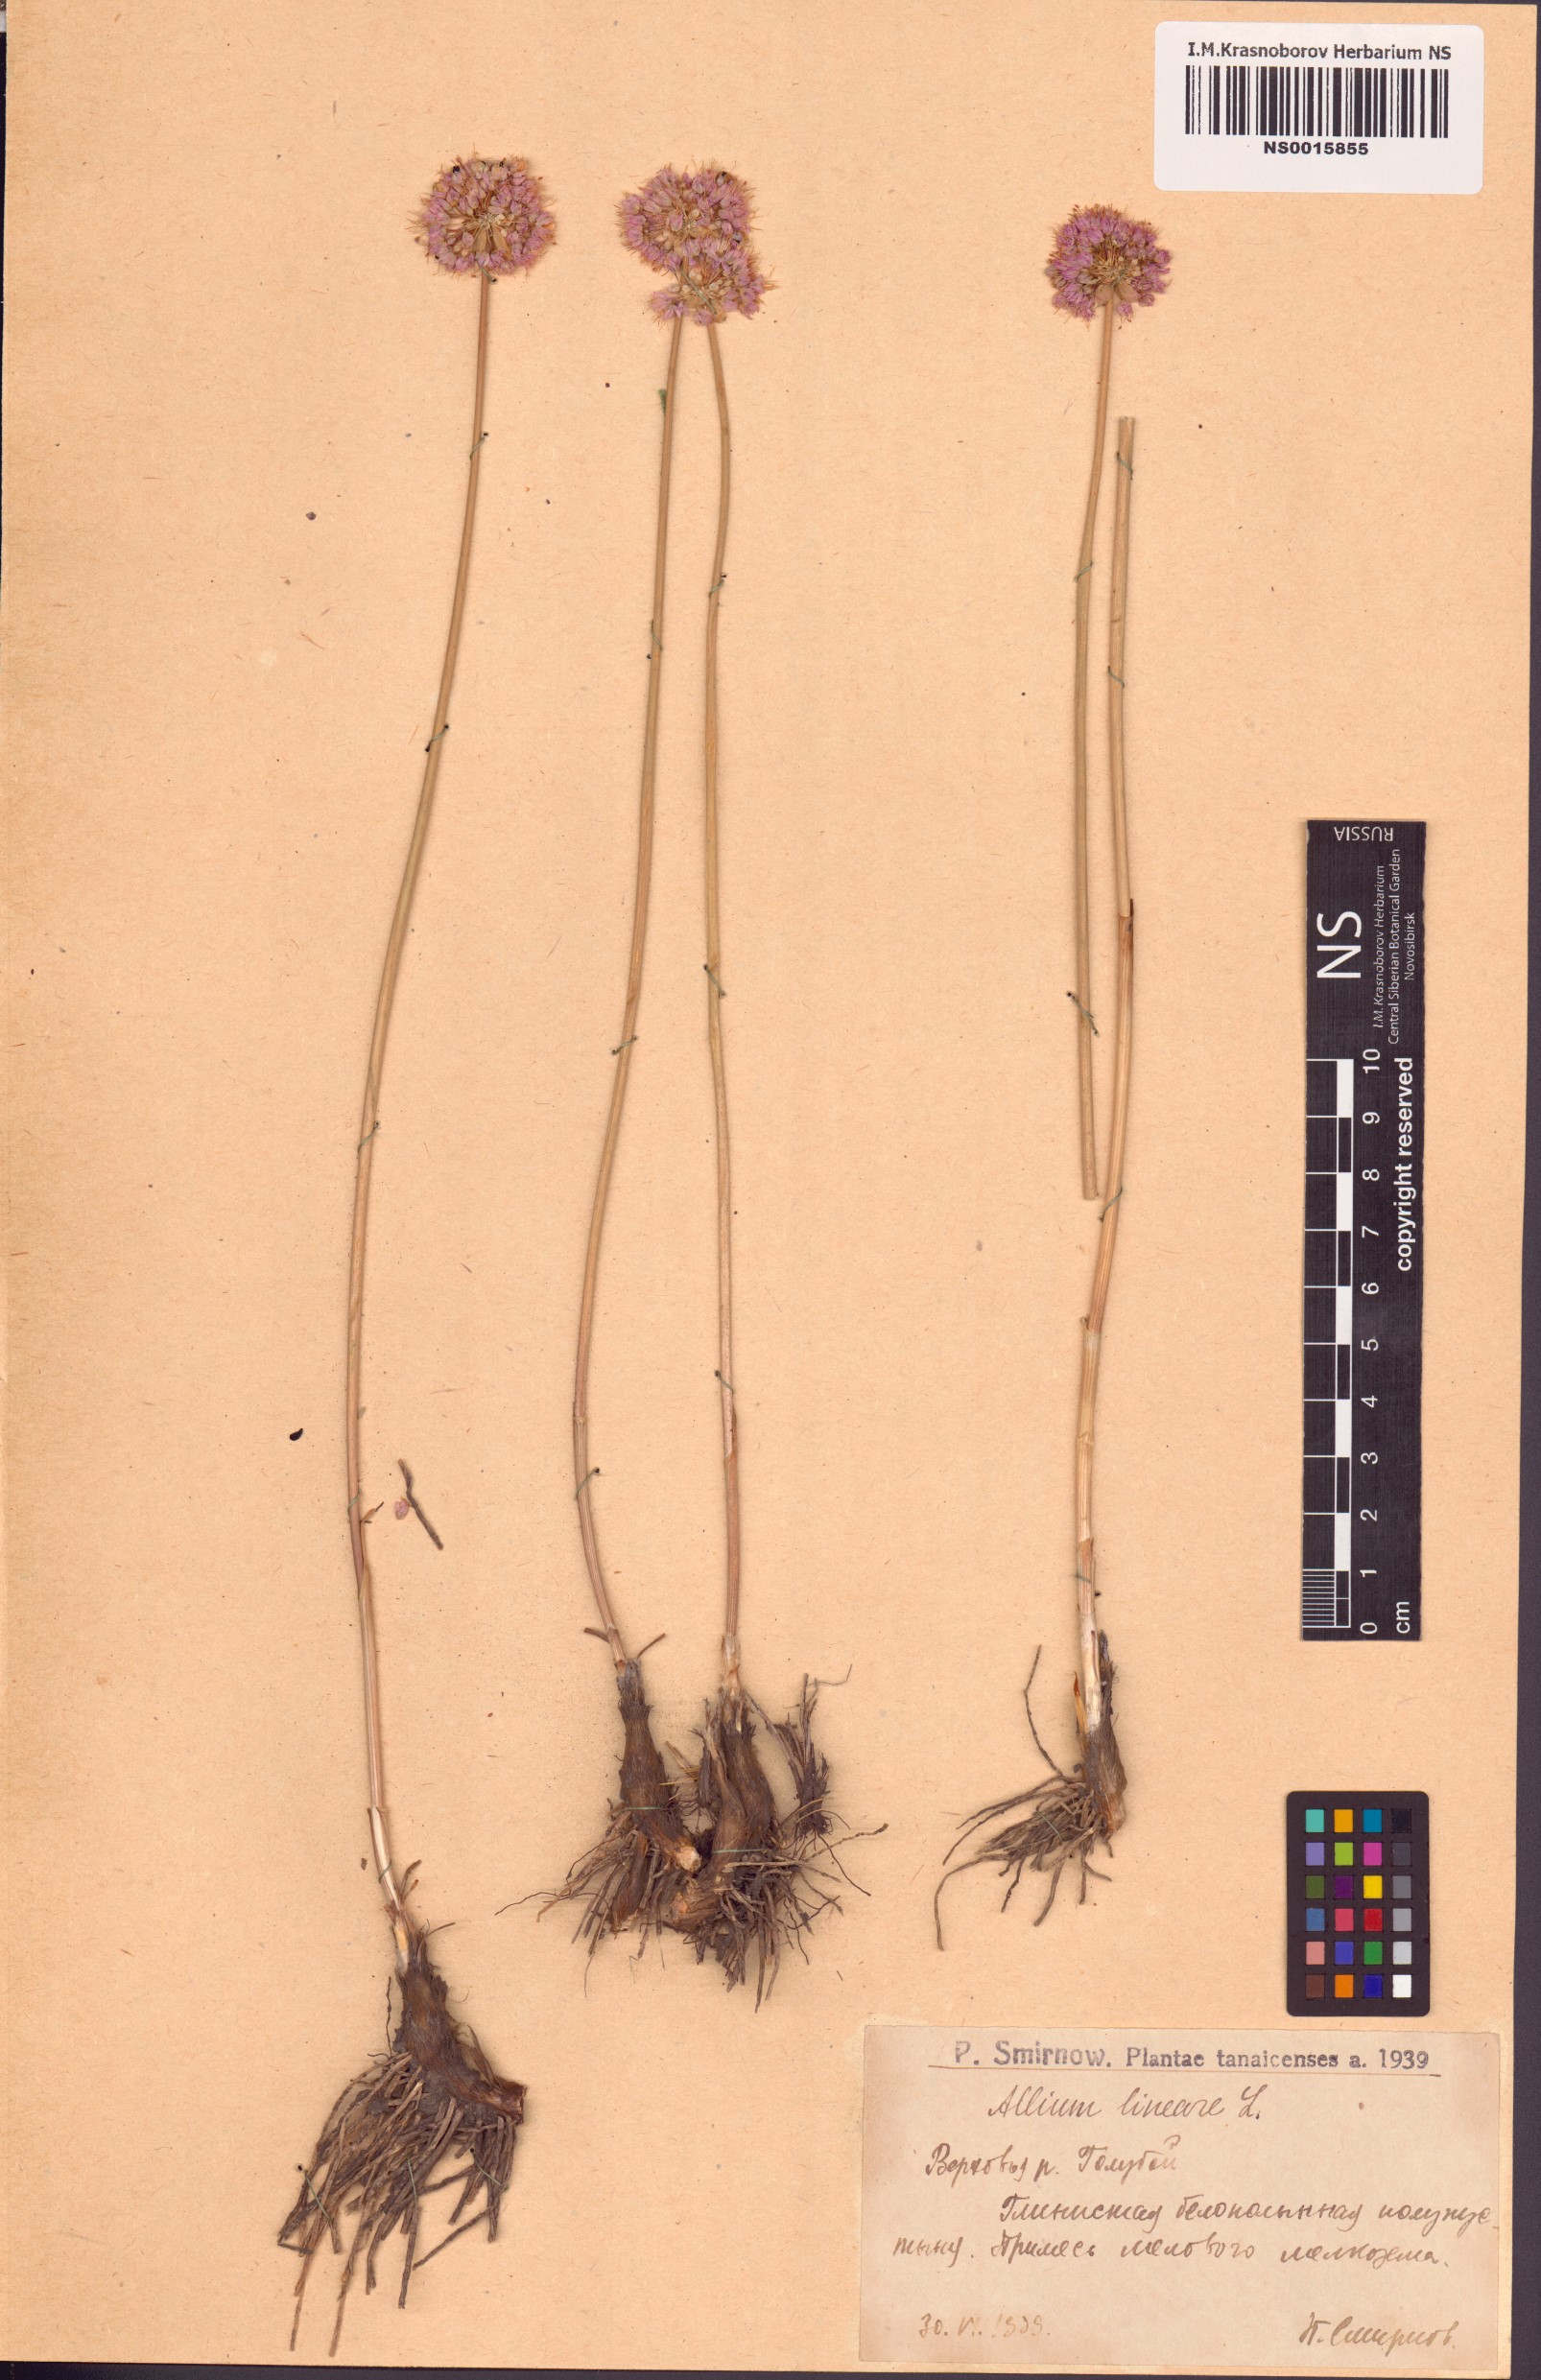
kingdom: Plantae
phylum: Tracheophyta
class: Liliopsida
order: Asparagales
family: Amaryllidaceae
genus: Allium
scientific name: Allium lineare
